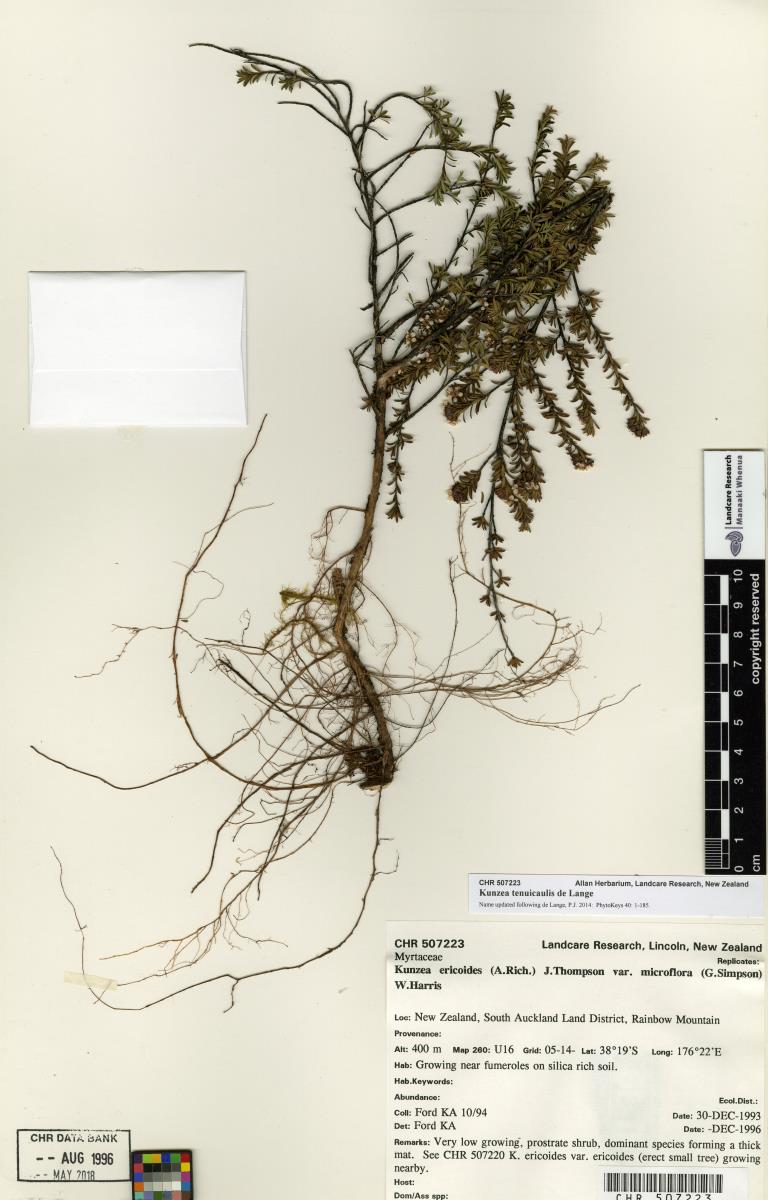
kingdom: Plantae
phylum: Tracheophyta
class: Magnoliopsida
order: Myrtales
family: Myrtaceae
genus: Kunzea
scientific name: Kunzea ericoides
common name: Burgan
